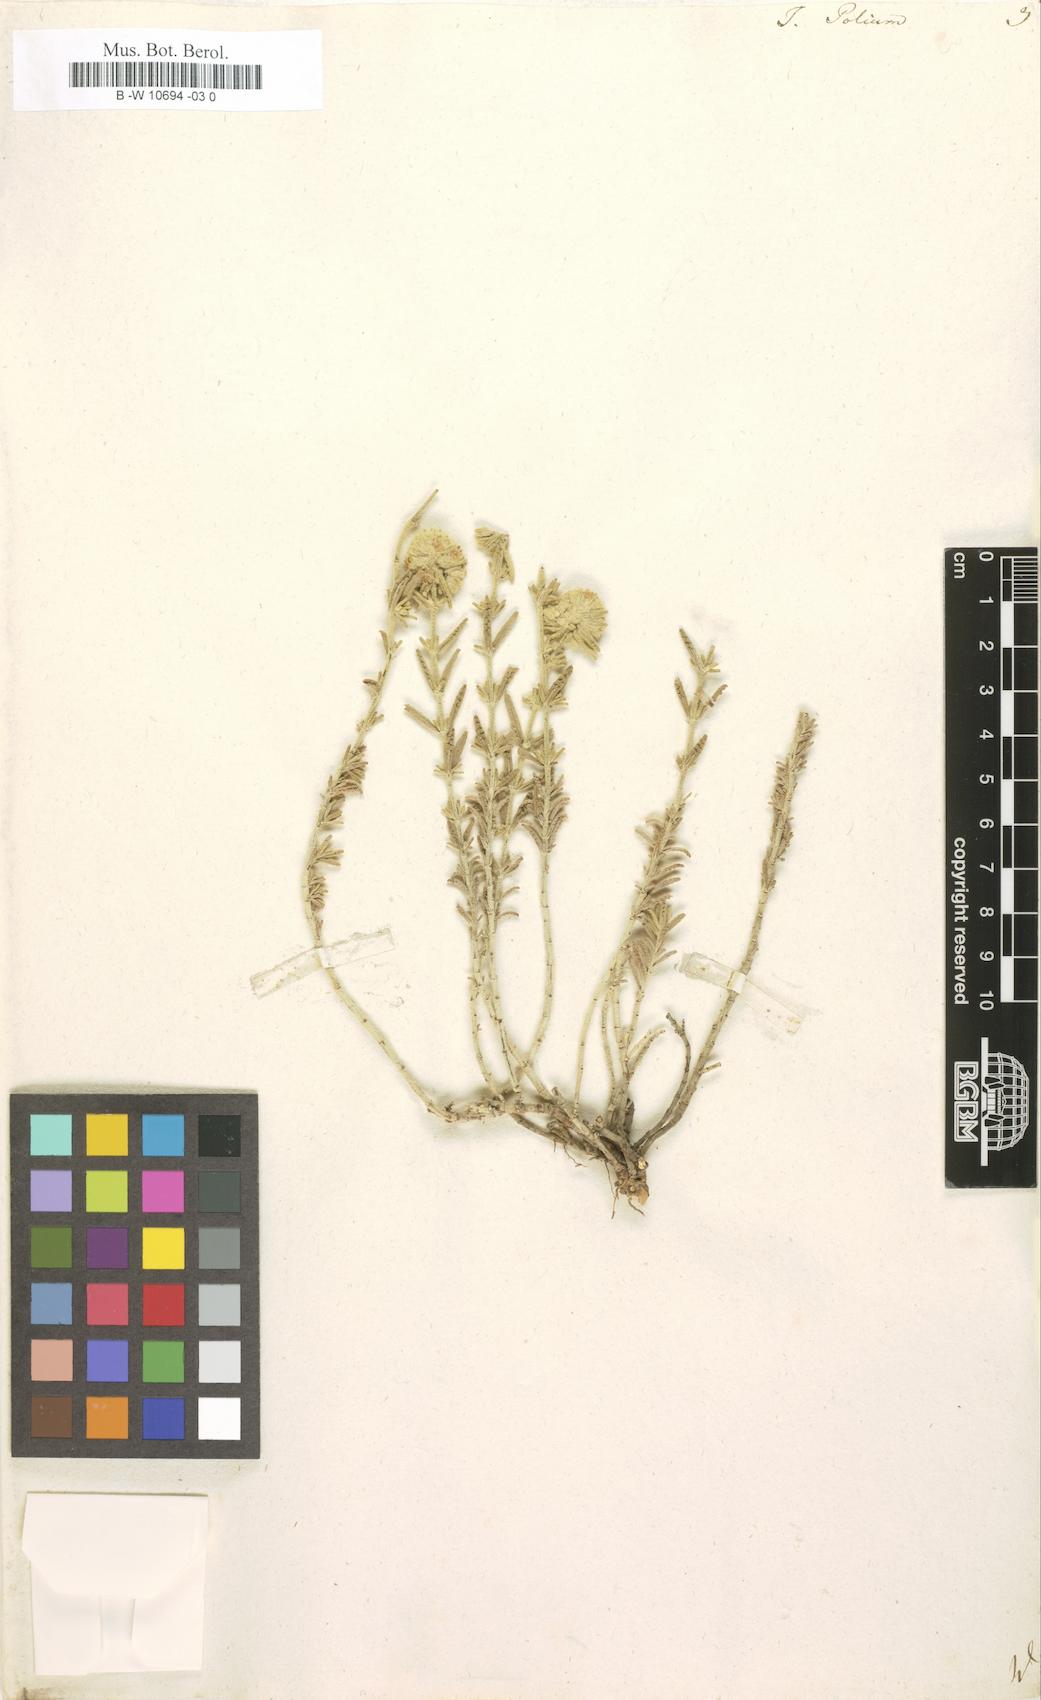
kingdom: Plantae
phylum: Tracheophyta
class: Magnoliopsida
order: Lamiales
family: Lamiaceae
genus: Teucrium
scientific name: Teucrium polium
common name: Poley
